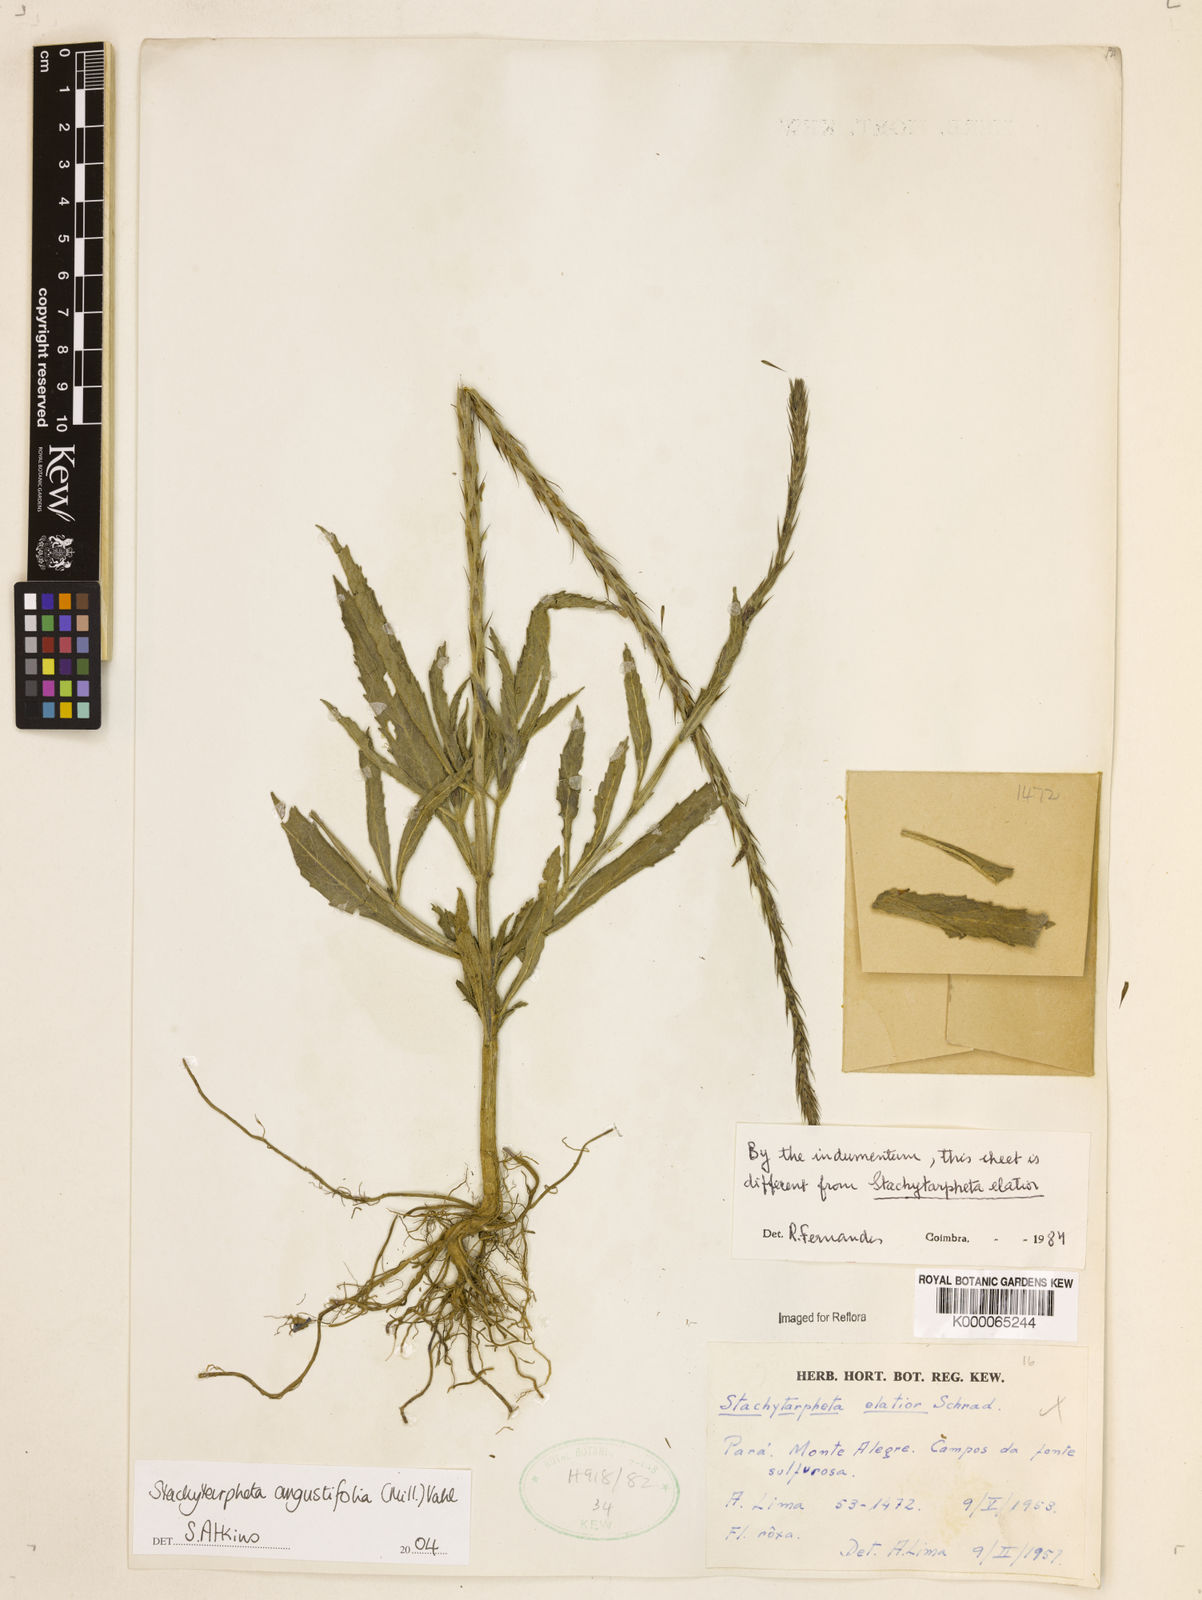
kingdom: Plantae
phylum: Tracheophyta
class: Magnoliopsida
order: Lamiales
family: Verbenaceae
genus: Stachytarpheta
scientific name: Stachytarpheta indica
